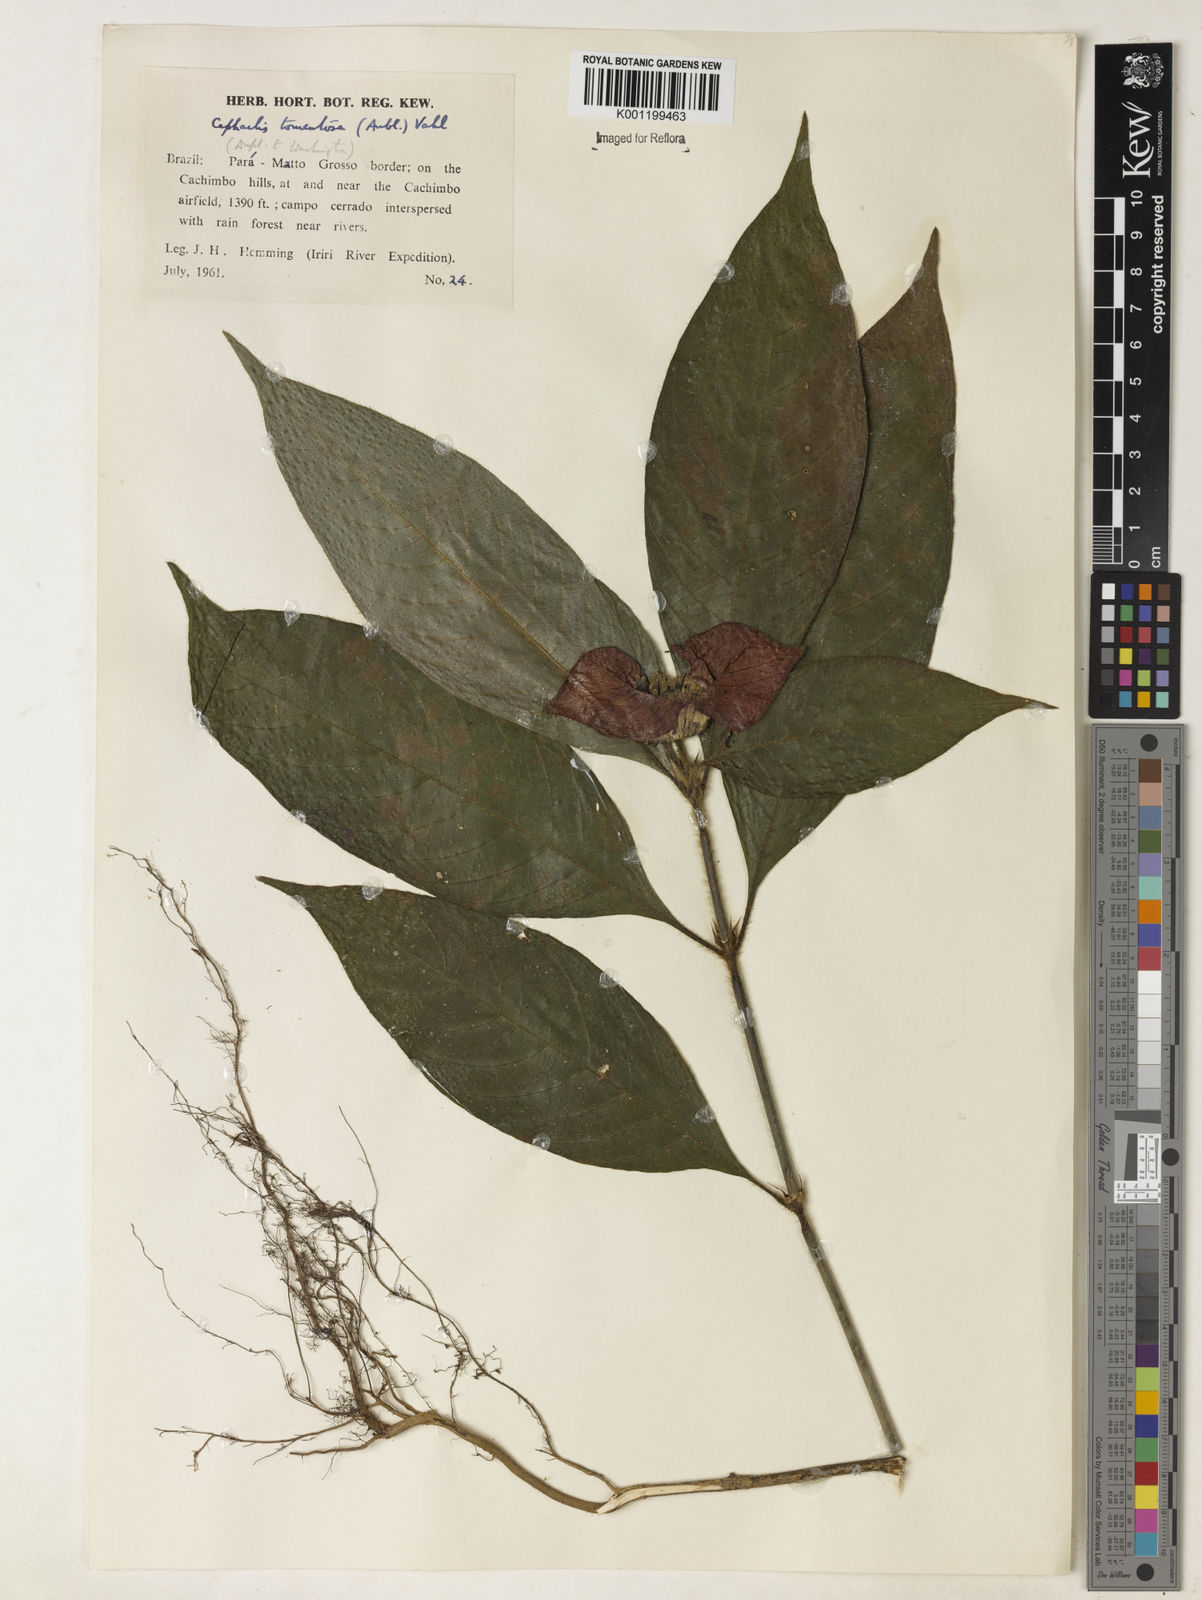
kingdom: Plantae
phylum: Tracheophyta
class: Magnoliopsida
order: Gentianales
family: Rubiaceae
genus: Psychotria
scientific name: Psychotria
